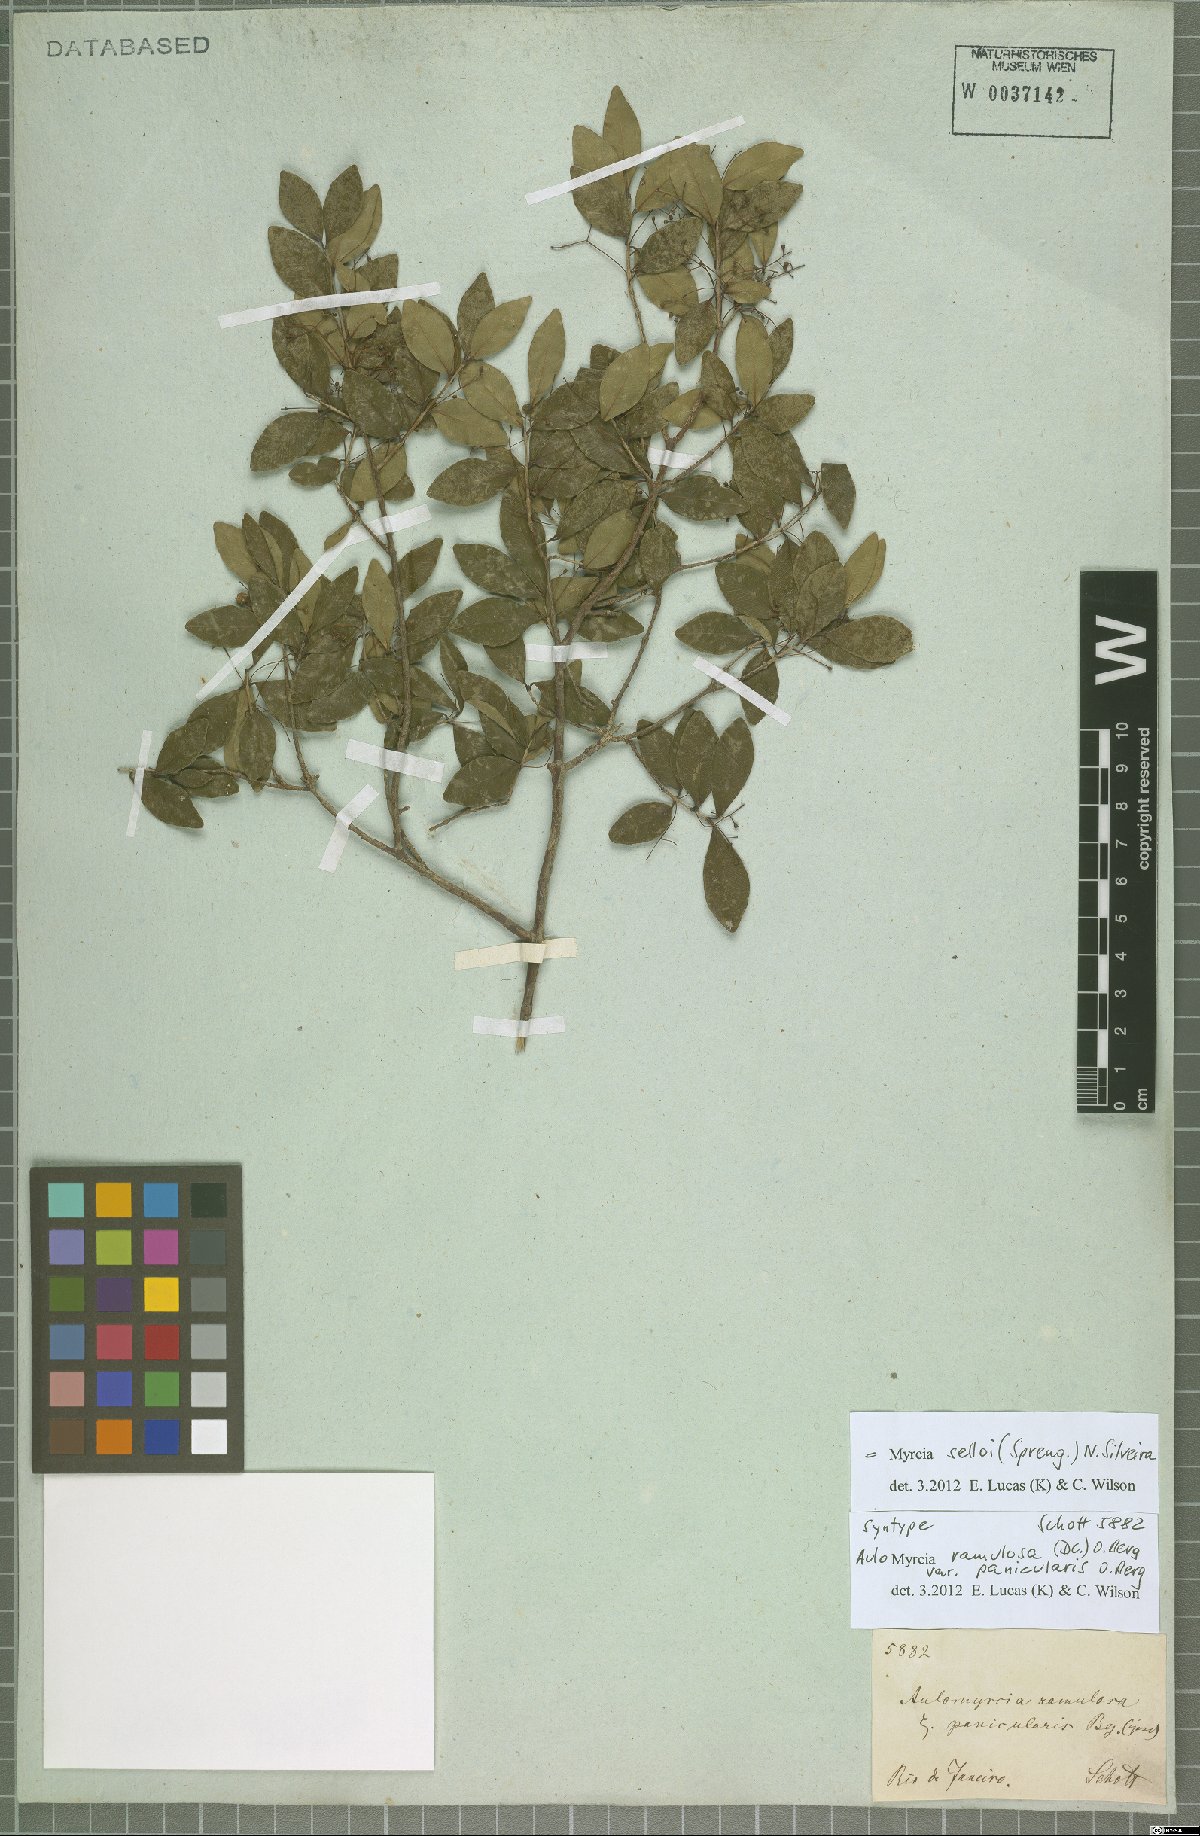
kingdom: Plantae
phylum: Tracheophyta
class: Magnoliopsida
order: Myrtales
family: Myrtaceae
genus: Myrcia
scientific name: Myrcia selloi
